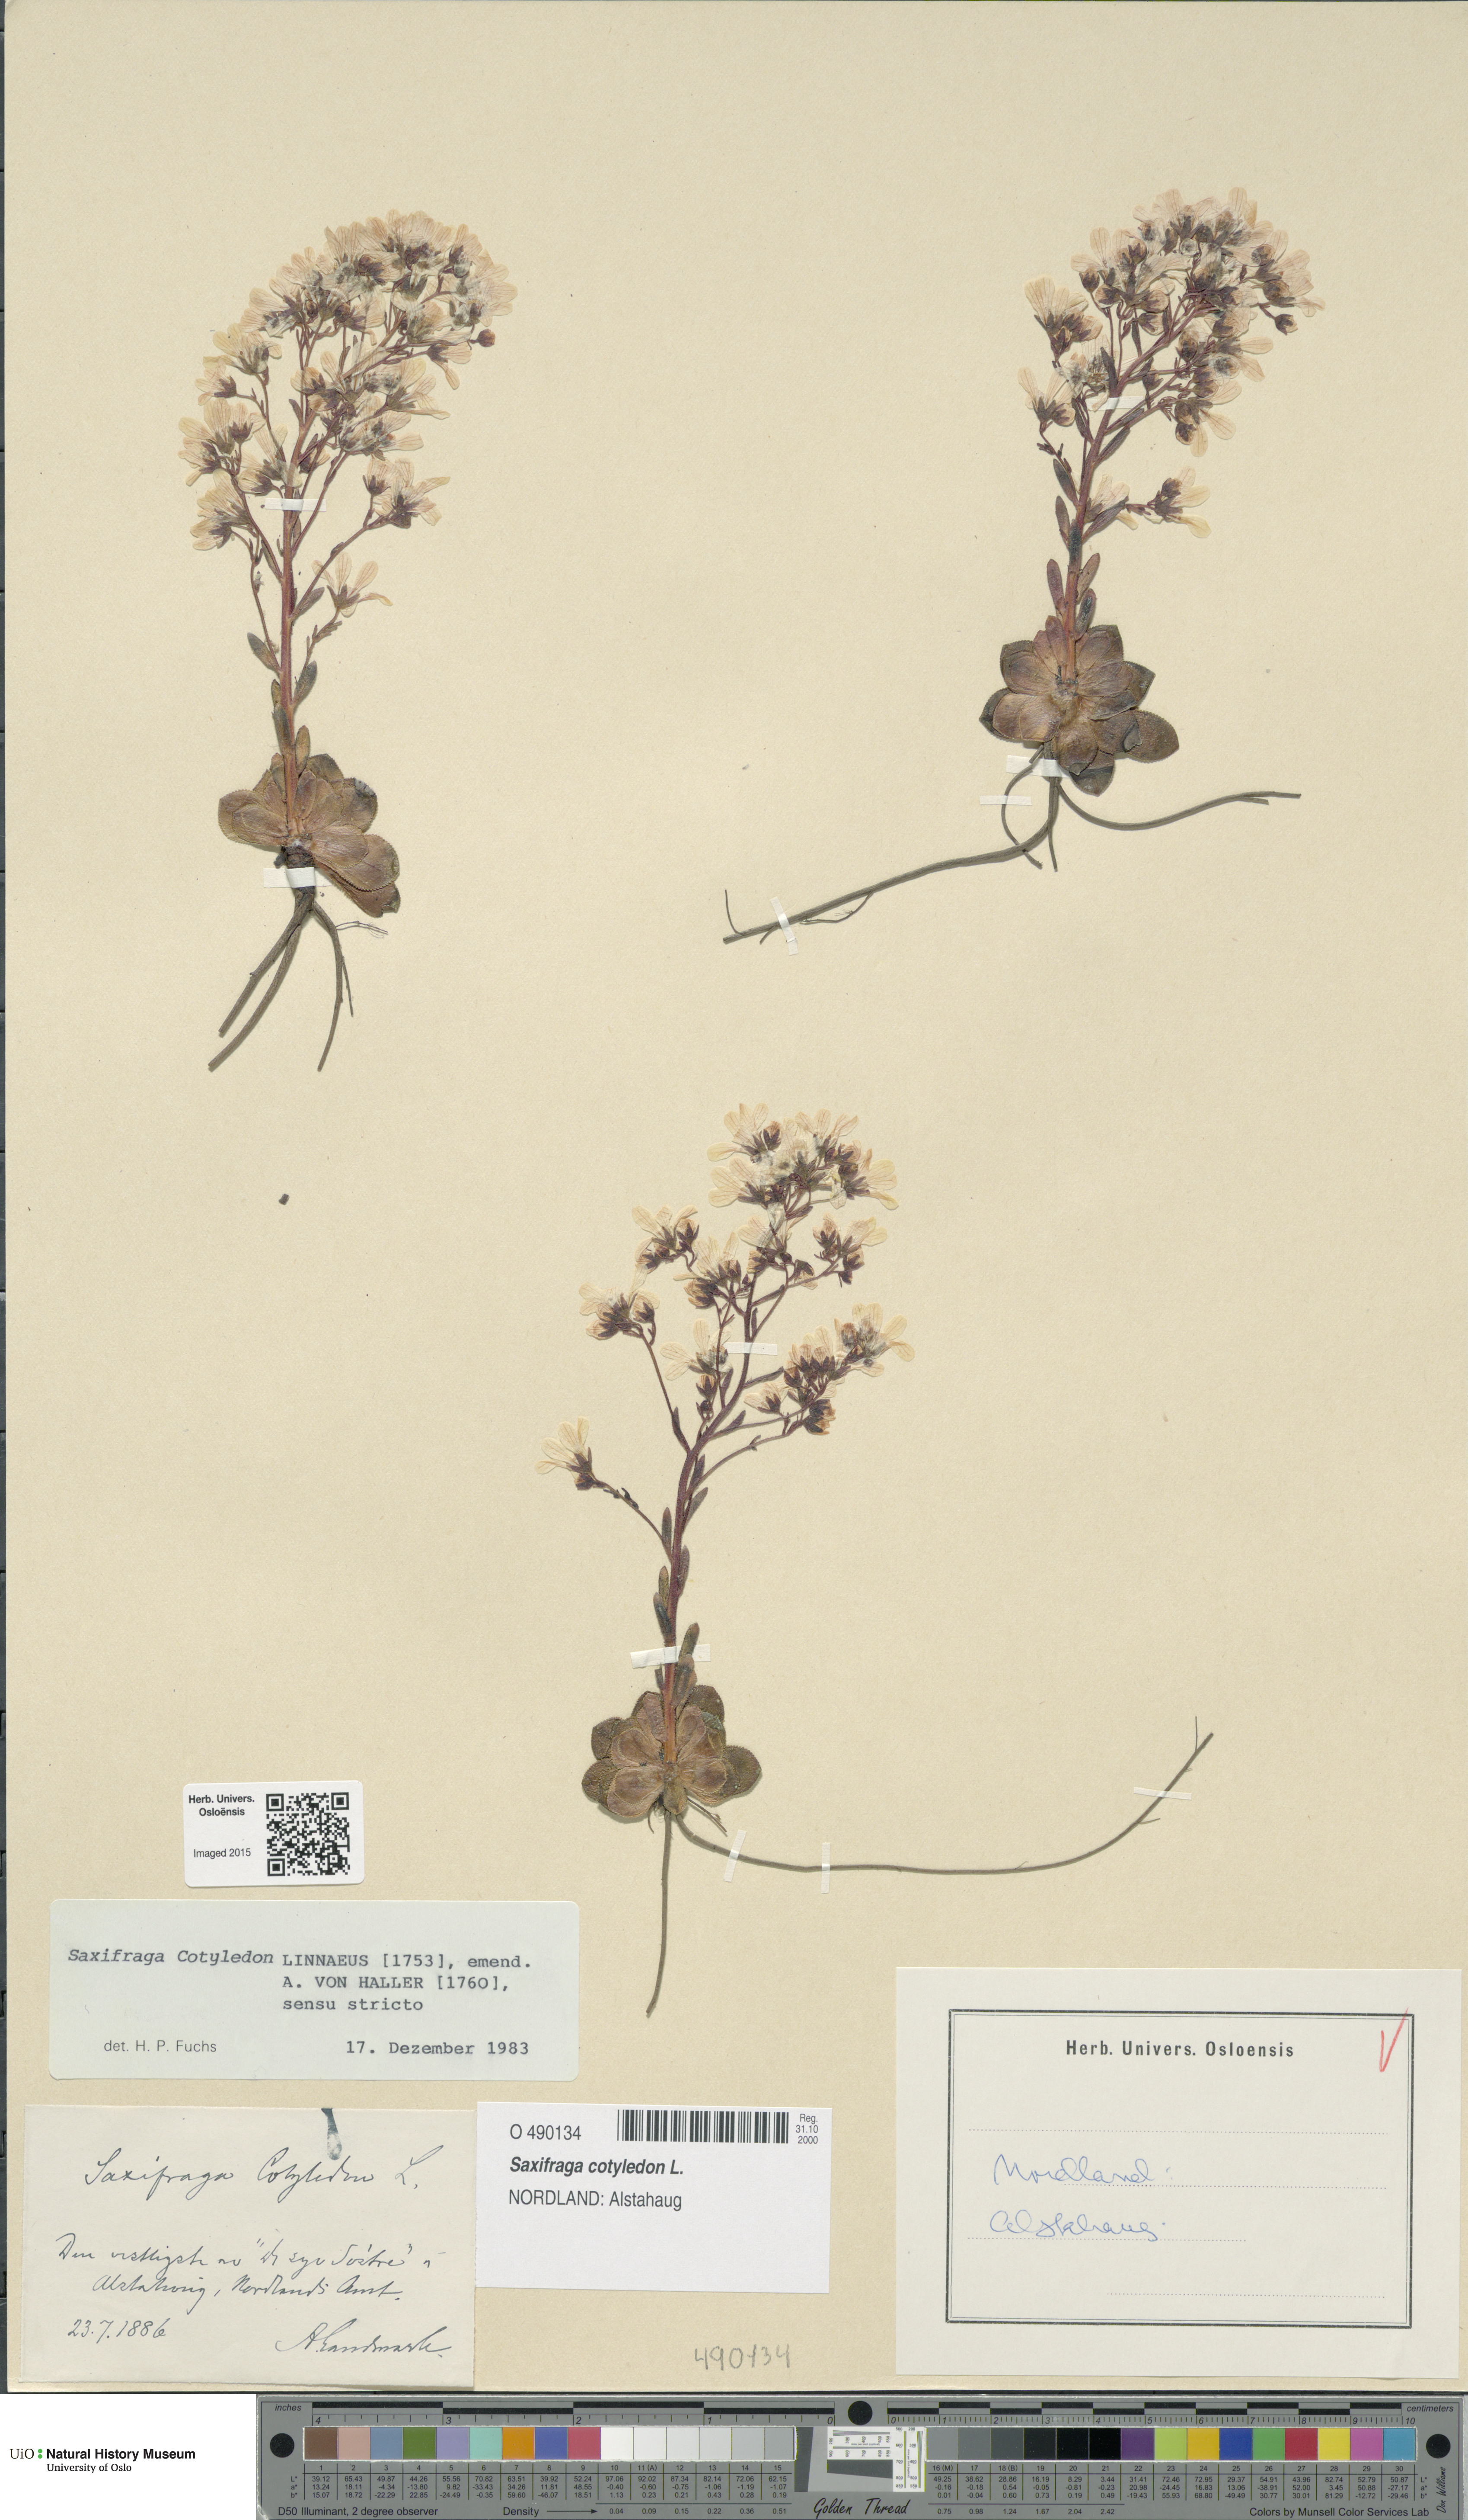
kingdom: Plantae
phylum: Tracheophyta
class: Magnoliopsida
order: Saxifragales
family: Saxifragaceae
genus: Saxifraga
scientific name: Saxifraga cotyledon
